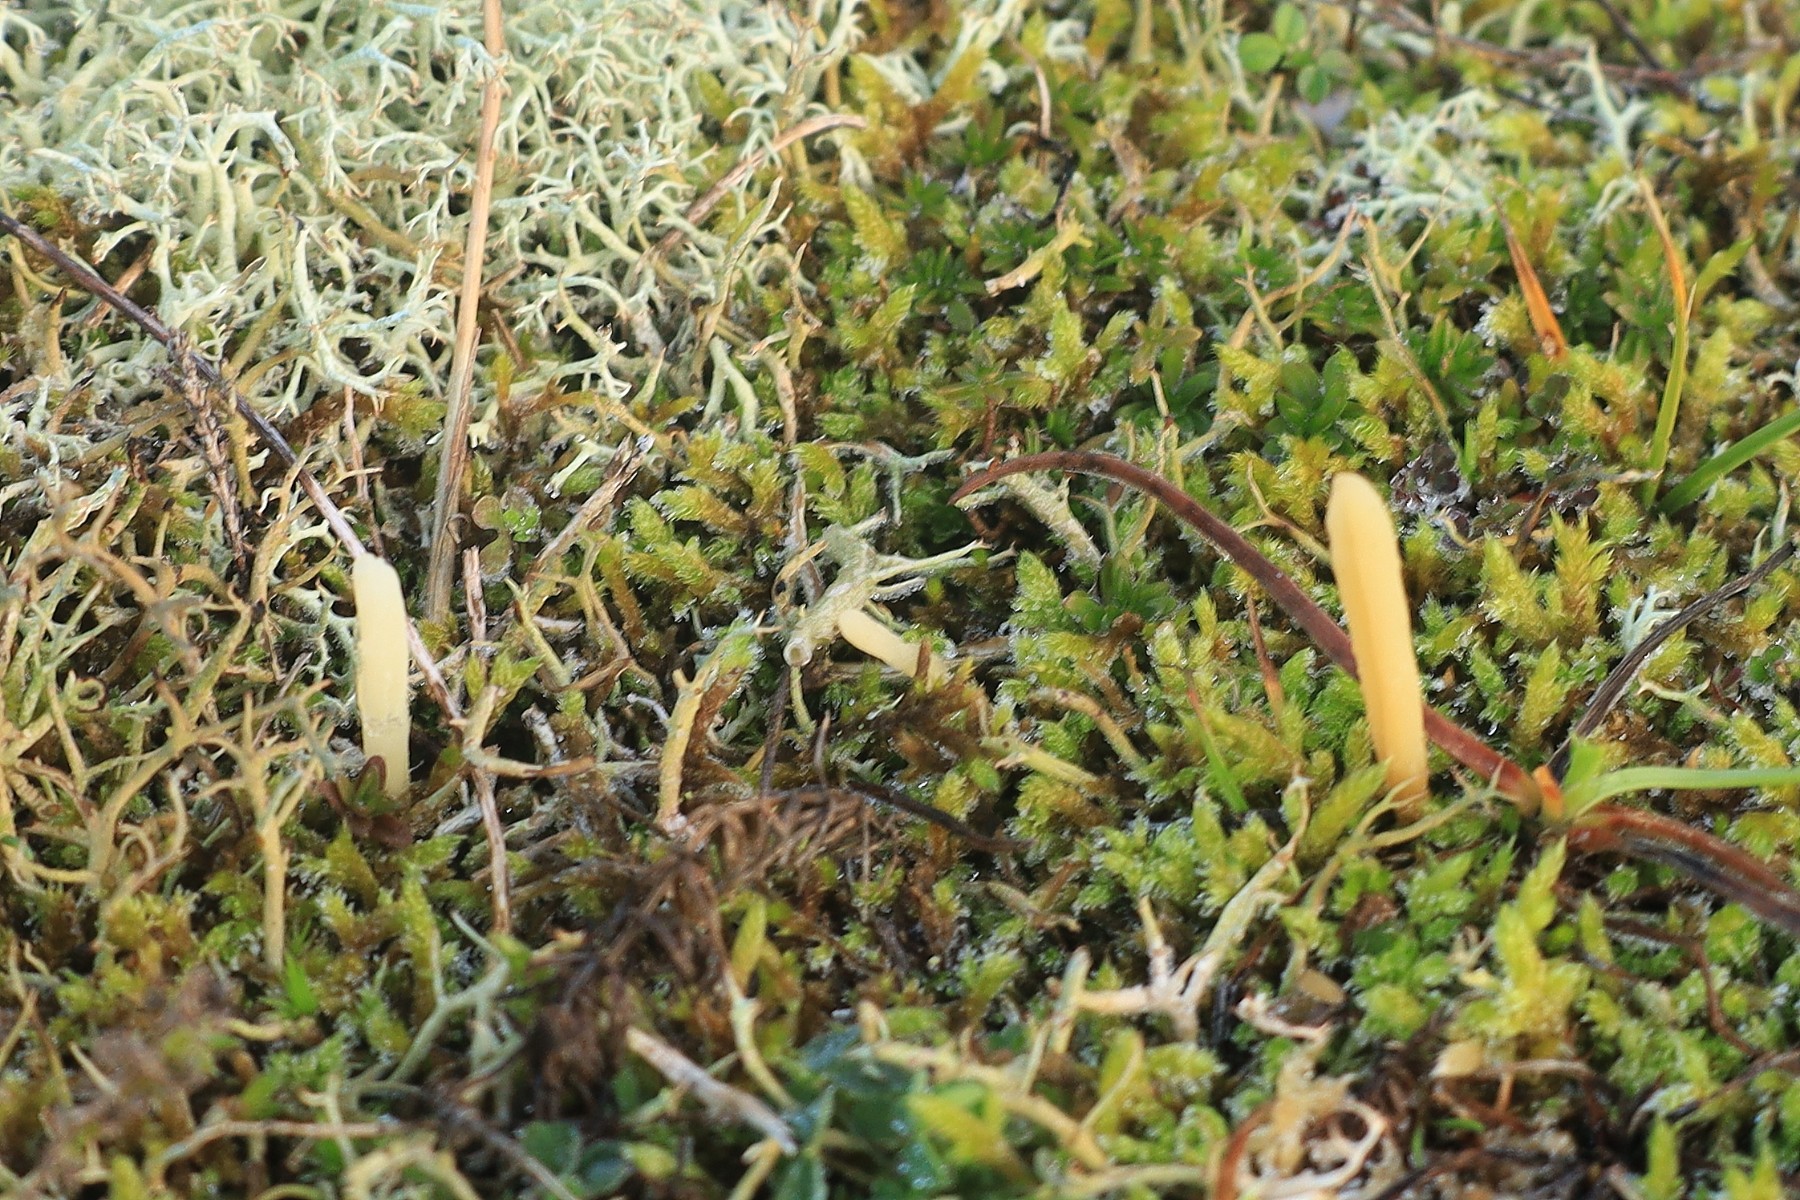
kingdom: Fungi
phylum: Basidiomycota
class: Agaricomycetes
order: Agaricales
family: Clavariaceae
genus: Clavaria
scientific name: Clavaria argillacea
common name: lerfarvet køllesvamp
